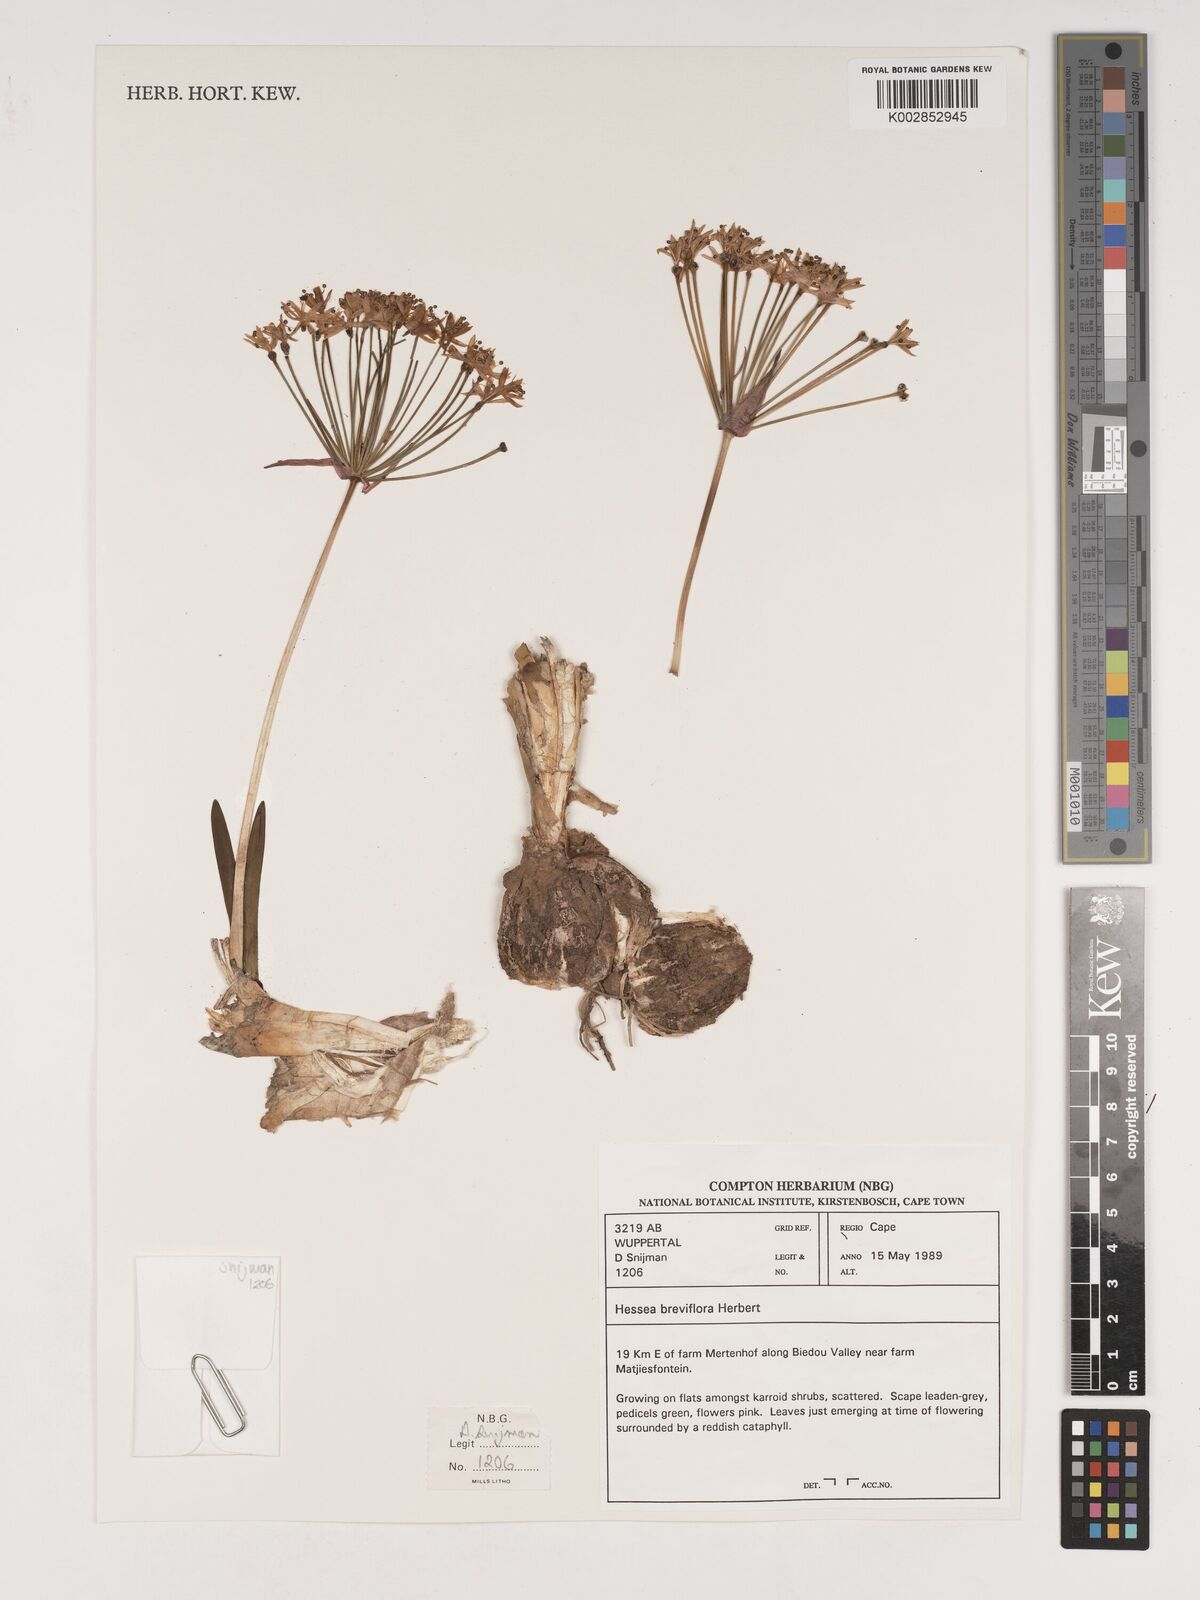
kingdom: Plantae
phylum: Tracheophyta
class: Liliopsida
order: Asparagales
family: Amaryllidaceae
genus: Hessea
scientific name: Hessea breviflora
